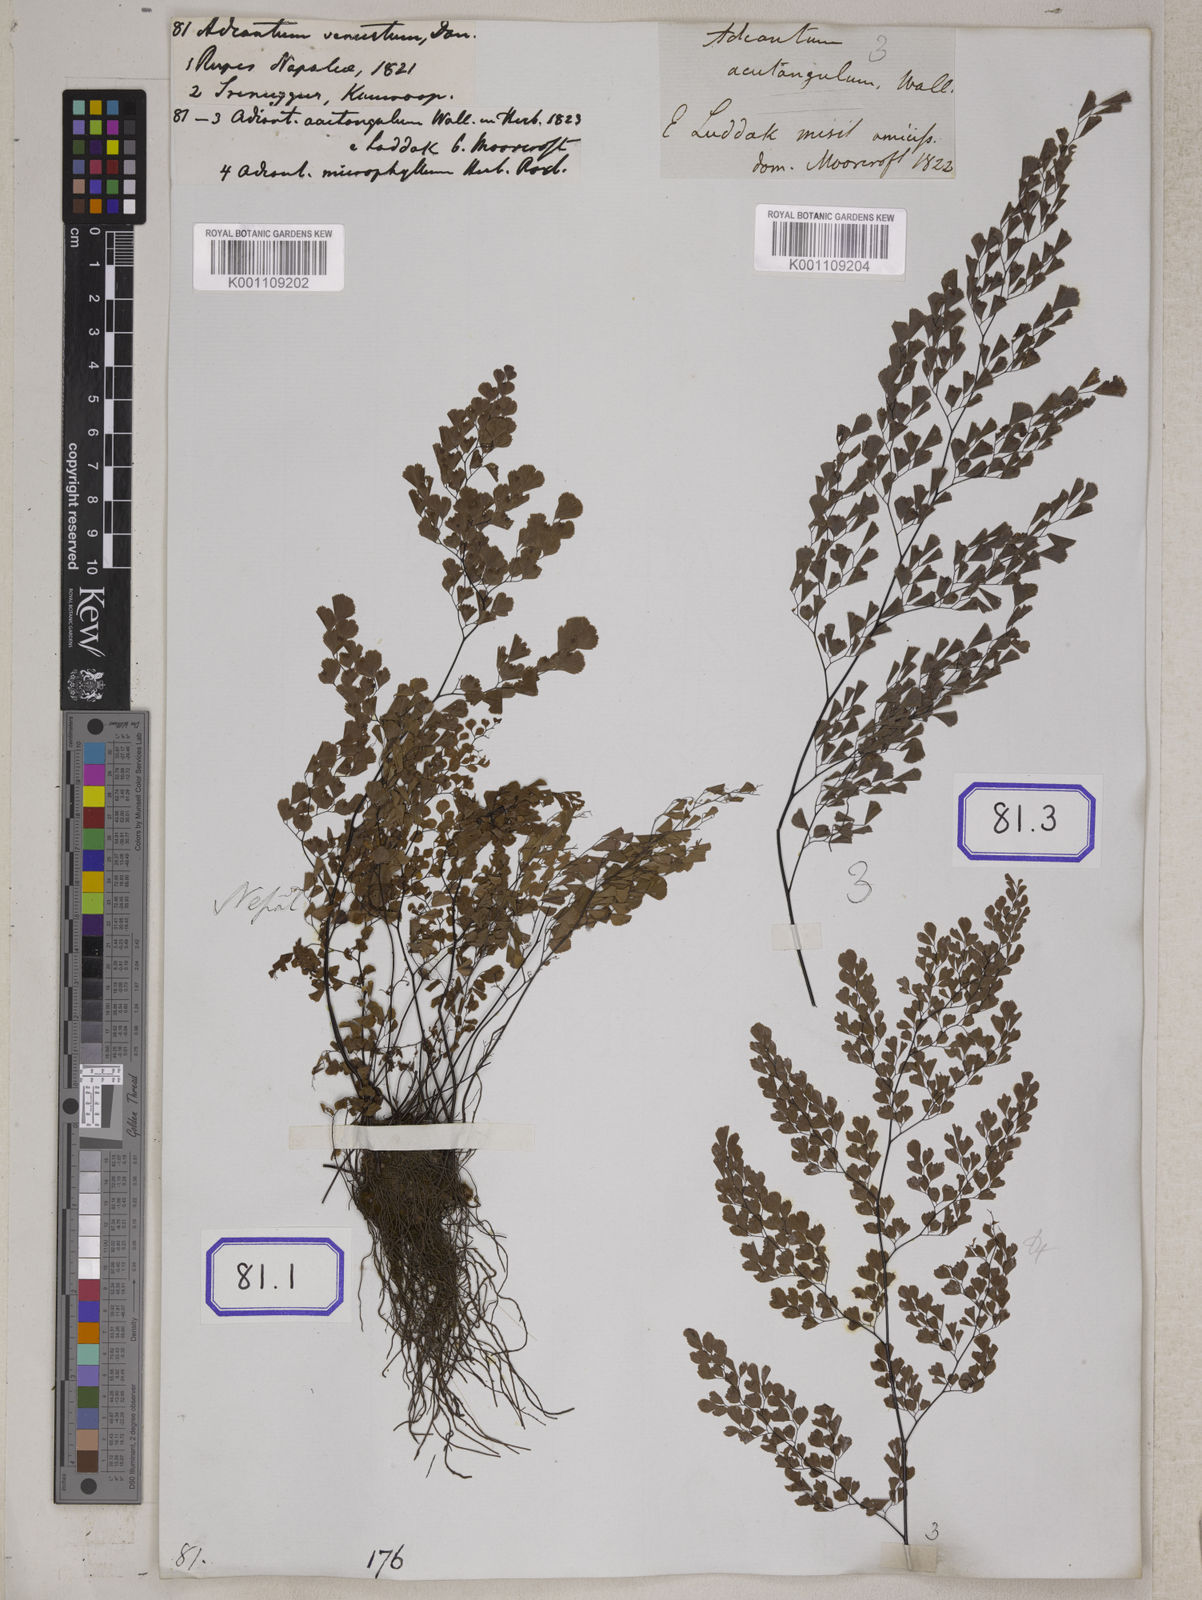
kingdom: Plantae
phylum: Tracheophyta
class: Polypodiopsida
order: Polypodiales
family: Pteridaceae
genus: Adiantum
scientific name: Adiantum venustum
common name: Evergreen maidenhair
